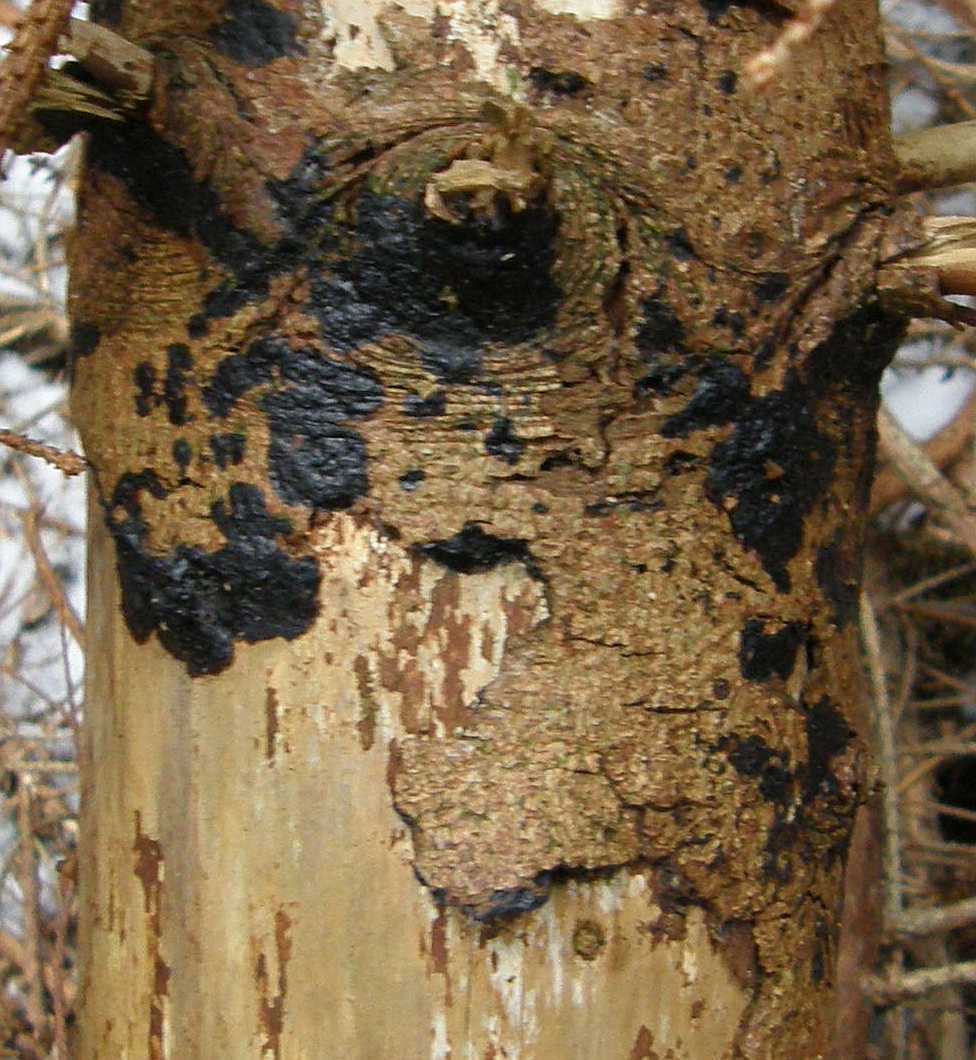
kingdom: Fungi
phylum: Basidiomycota
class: Agaricomycetes
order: Auriculariales
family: Auriculariaceae
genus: Exidia
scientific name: Exidia pithya
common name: gran-bævretop
